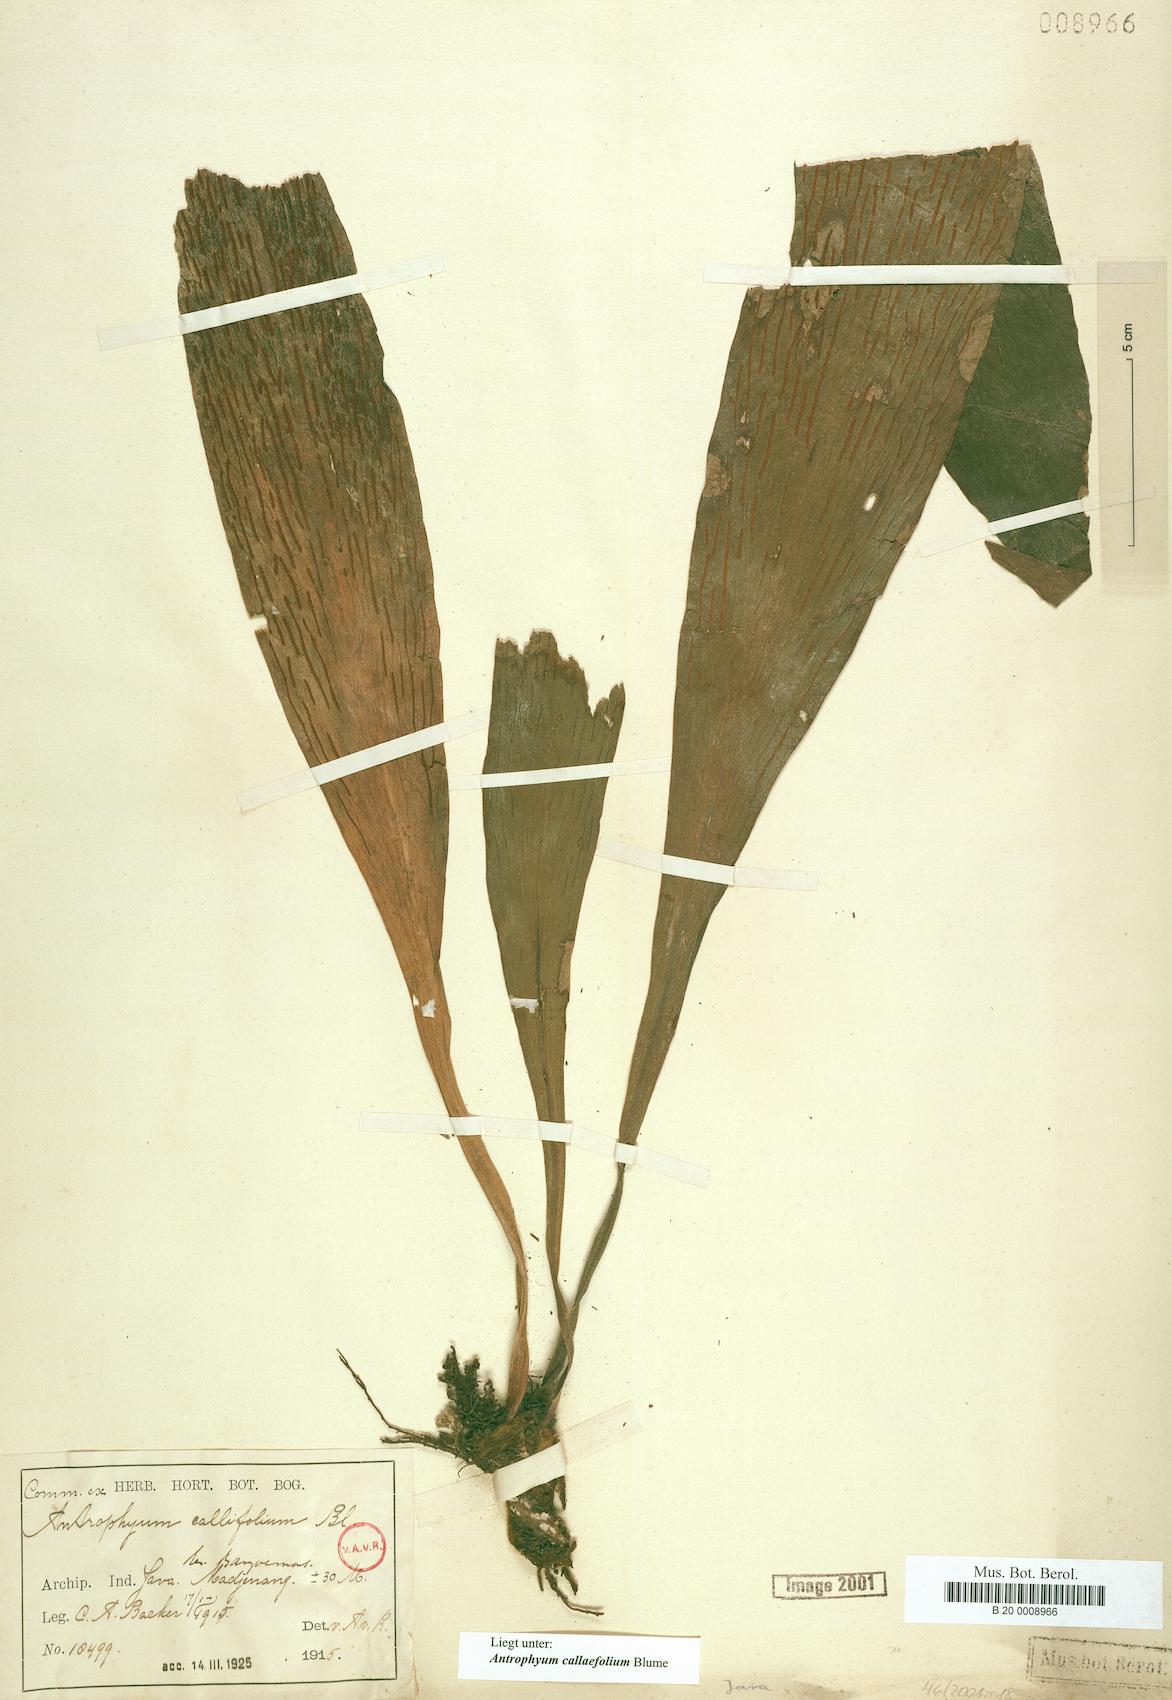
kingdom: Plantae
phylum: Tracheophyta
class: Polypodiopsida
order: Polypodiales
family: Pteridaceae
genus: Antrophyum
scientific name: Antrophyum callifolium
